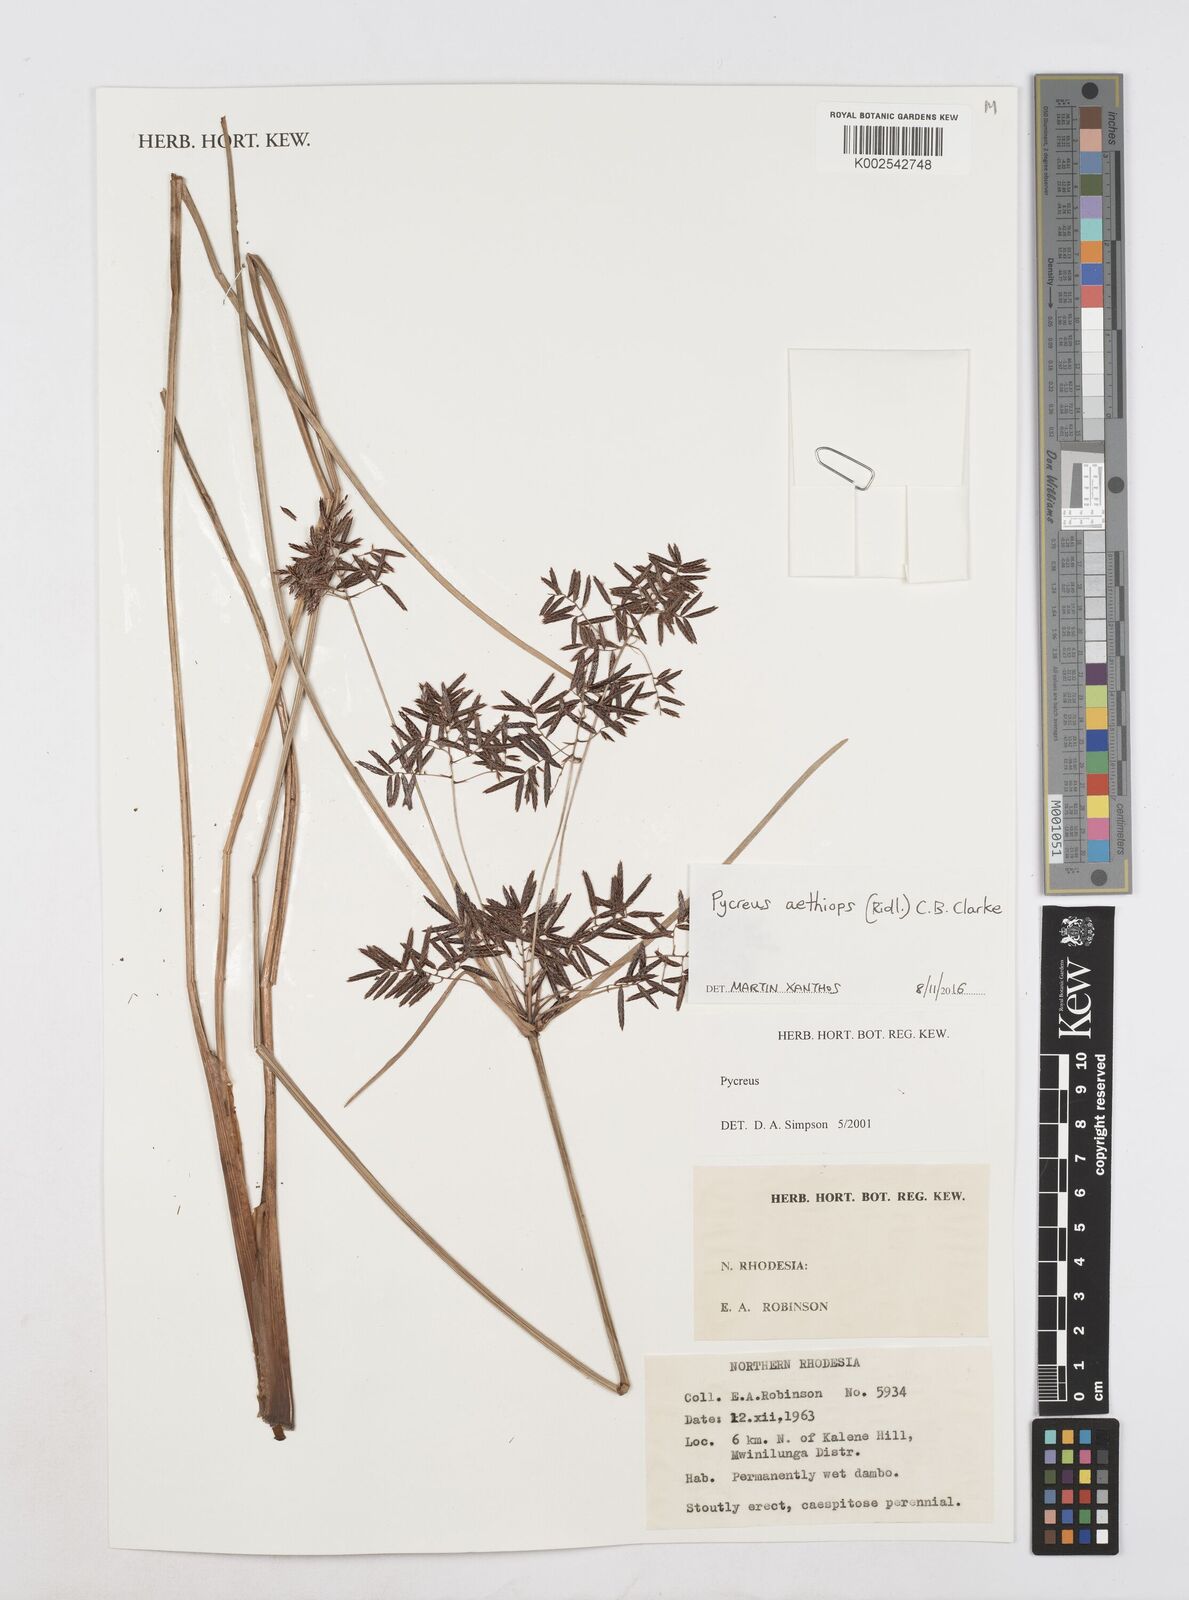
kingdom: Plantae
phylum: Tracheophyta
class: Liliopsida
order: Poales
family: Cyperaceae
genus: Cyperus
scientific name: Cyperus aethiops
